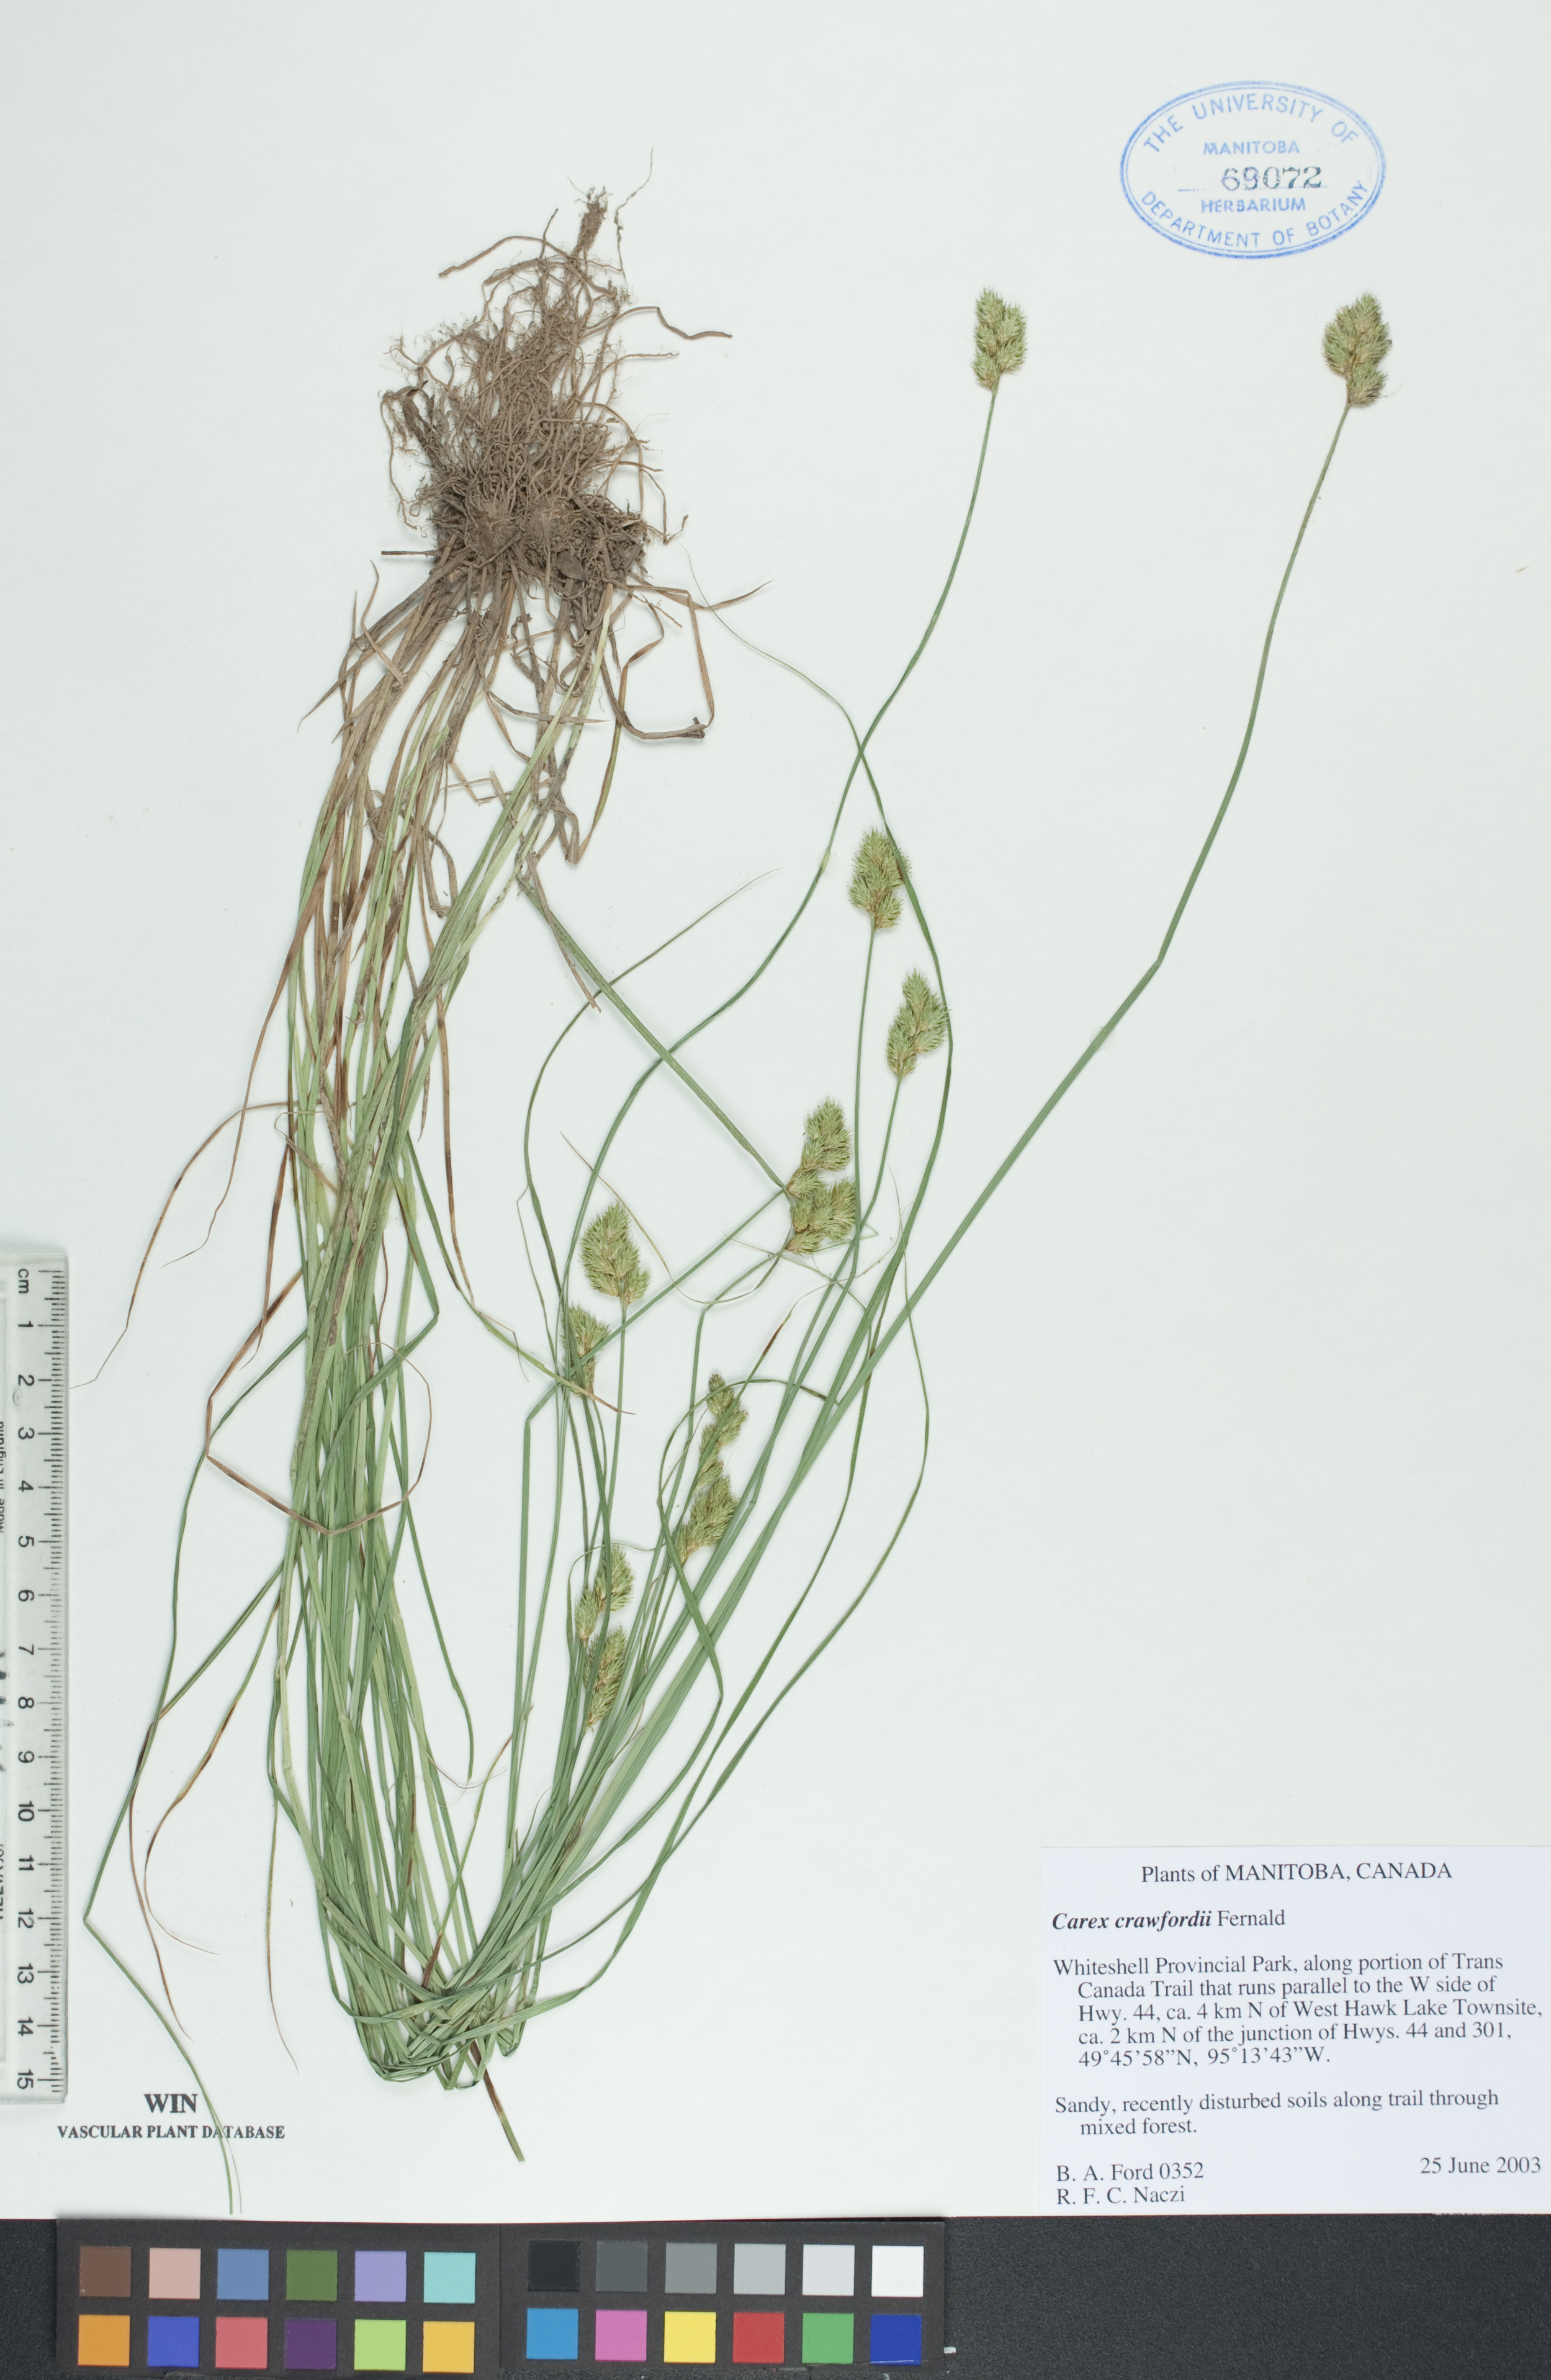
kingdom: Plantae
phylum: Tracheophyta
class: Liliopsida
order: Poales
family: Cyperaceae
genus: Carex
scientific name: Carex crawfordii
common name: Crawford's sedge
